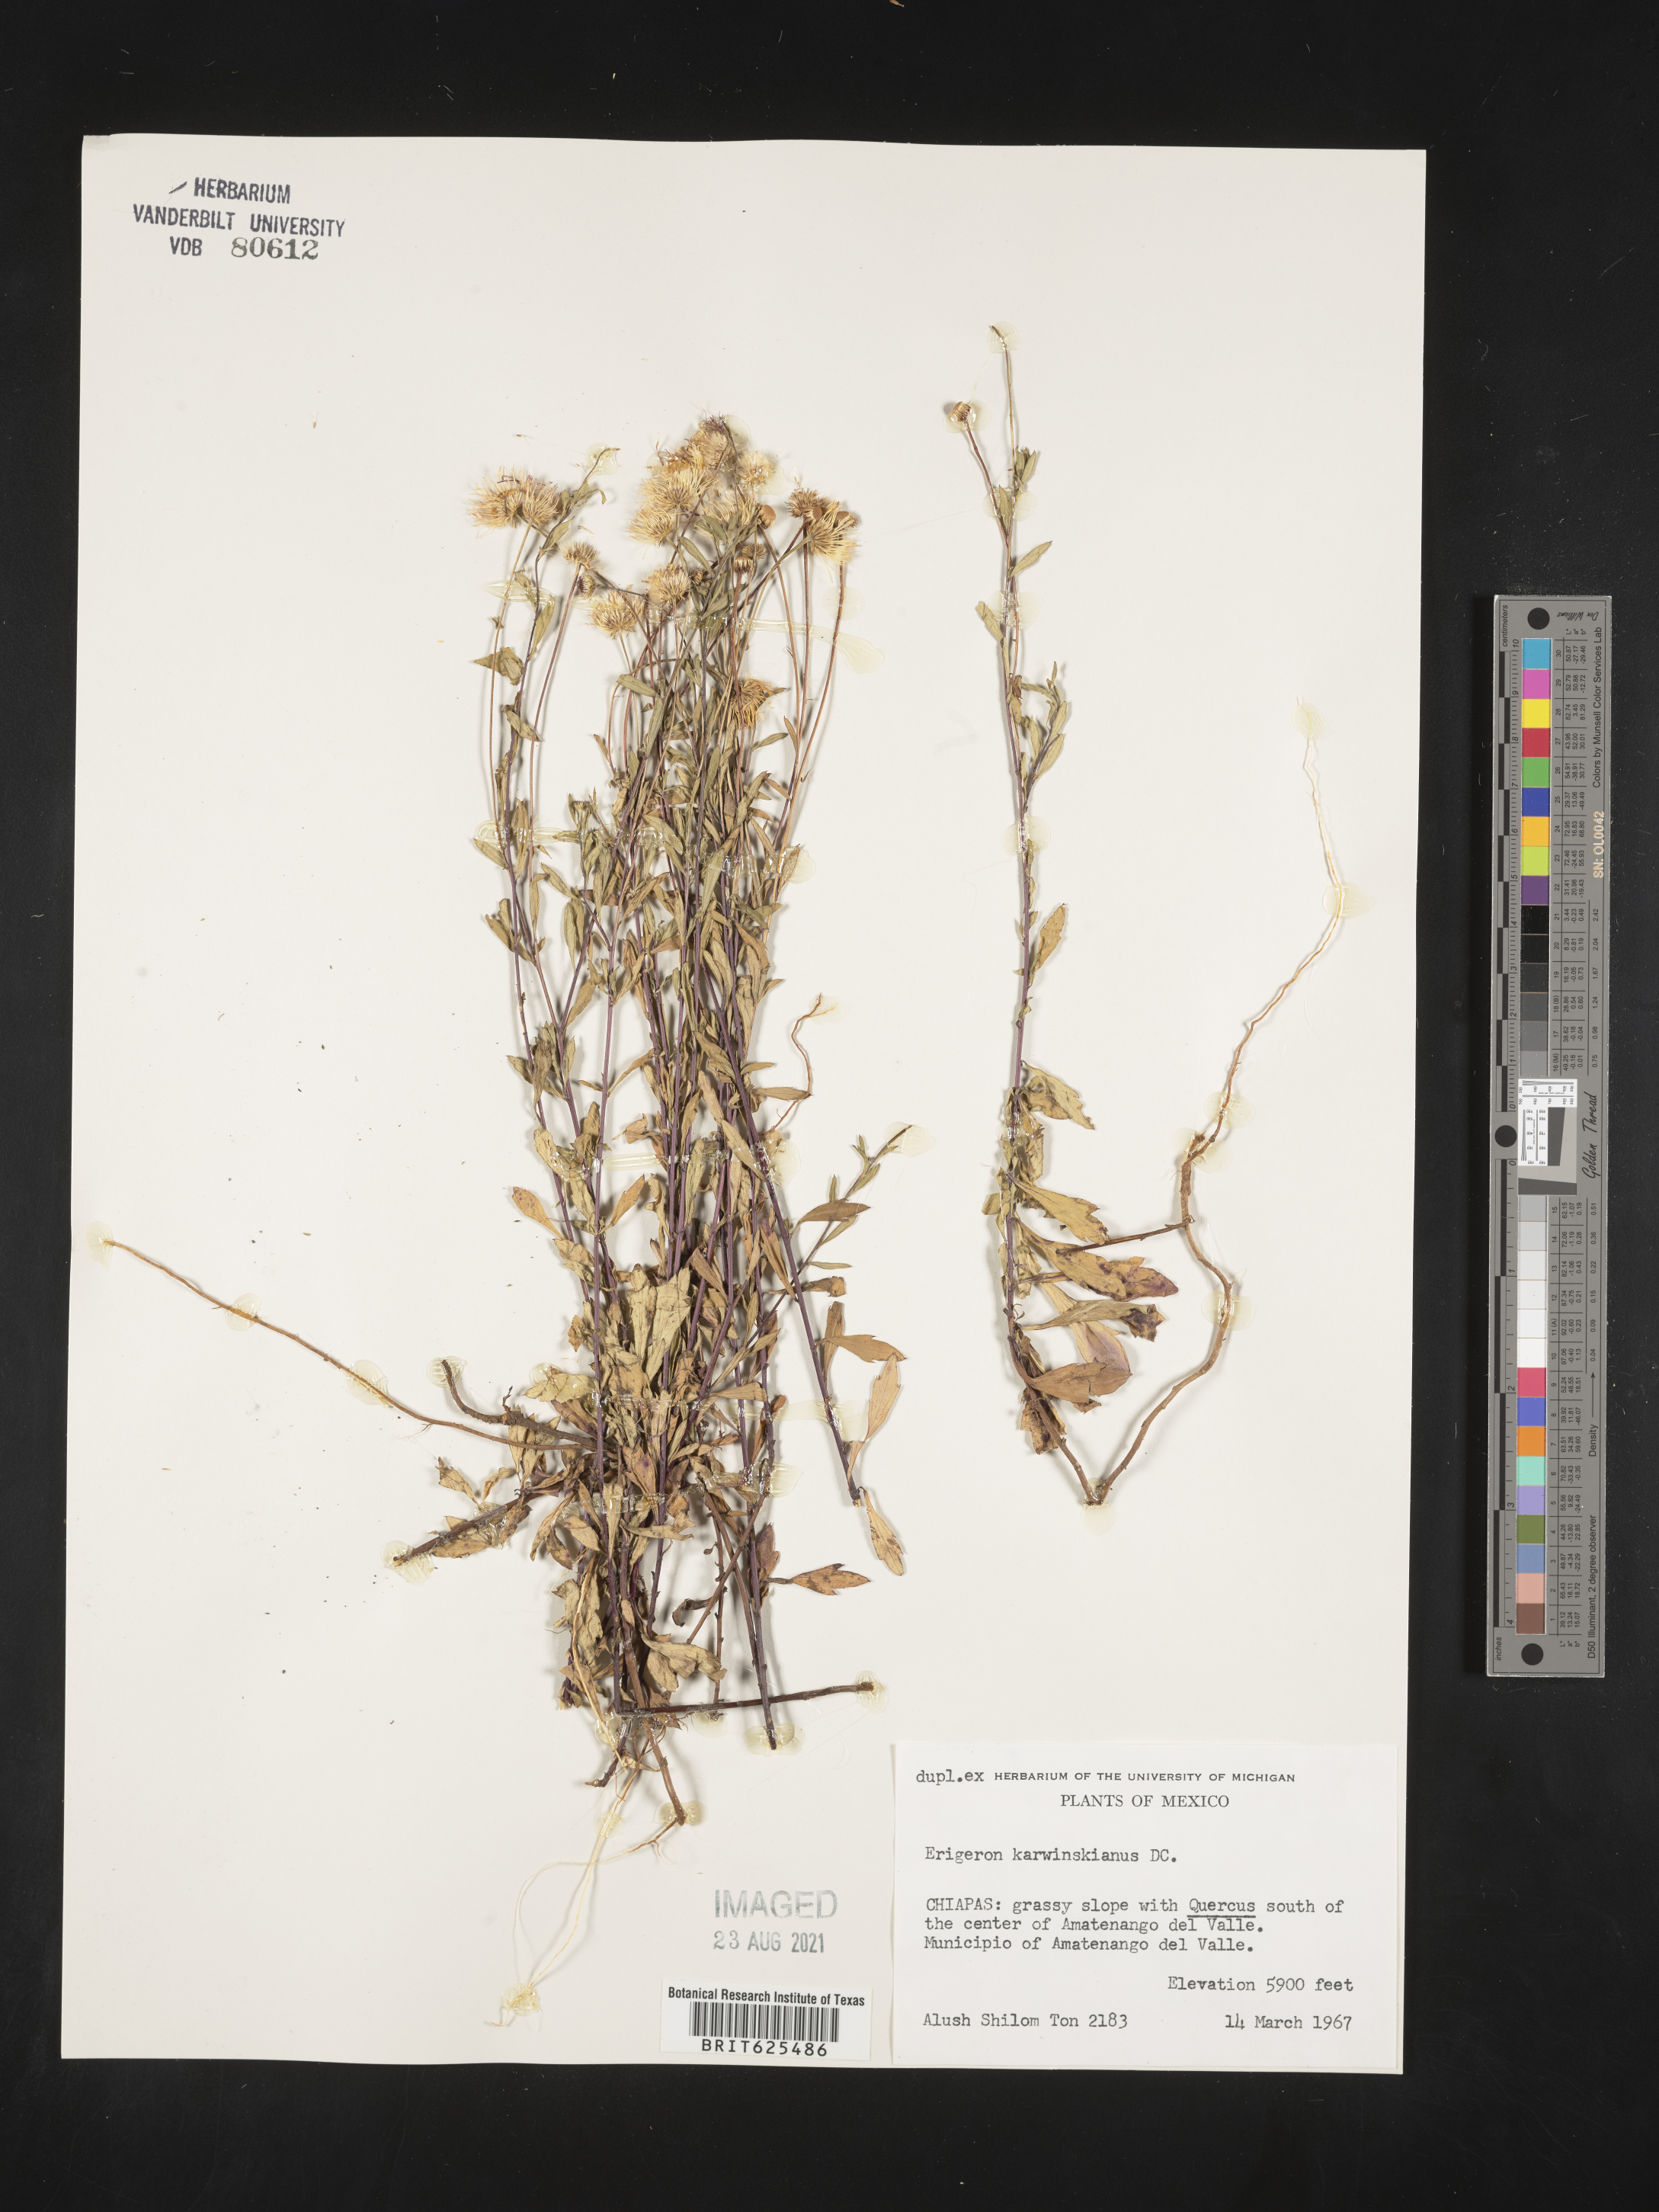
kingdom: Plantae
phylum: Tracheophyta
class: Magnoliopsida
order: Asterales
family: Asteraceae
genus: Erigeron
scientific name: Erigeron
